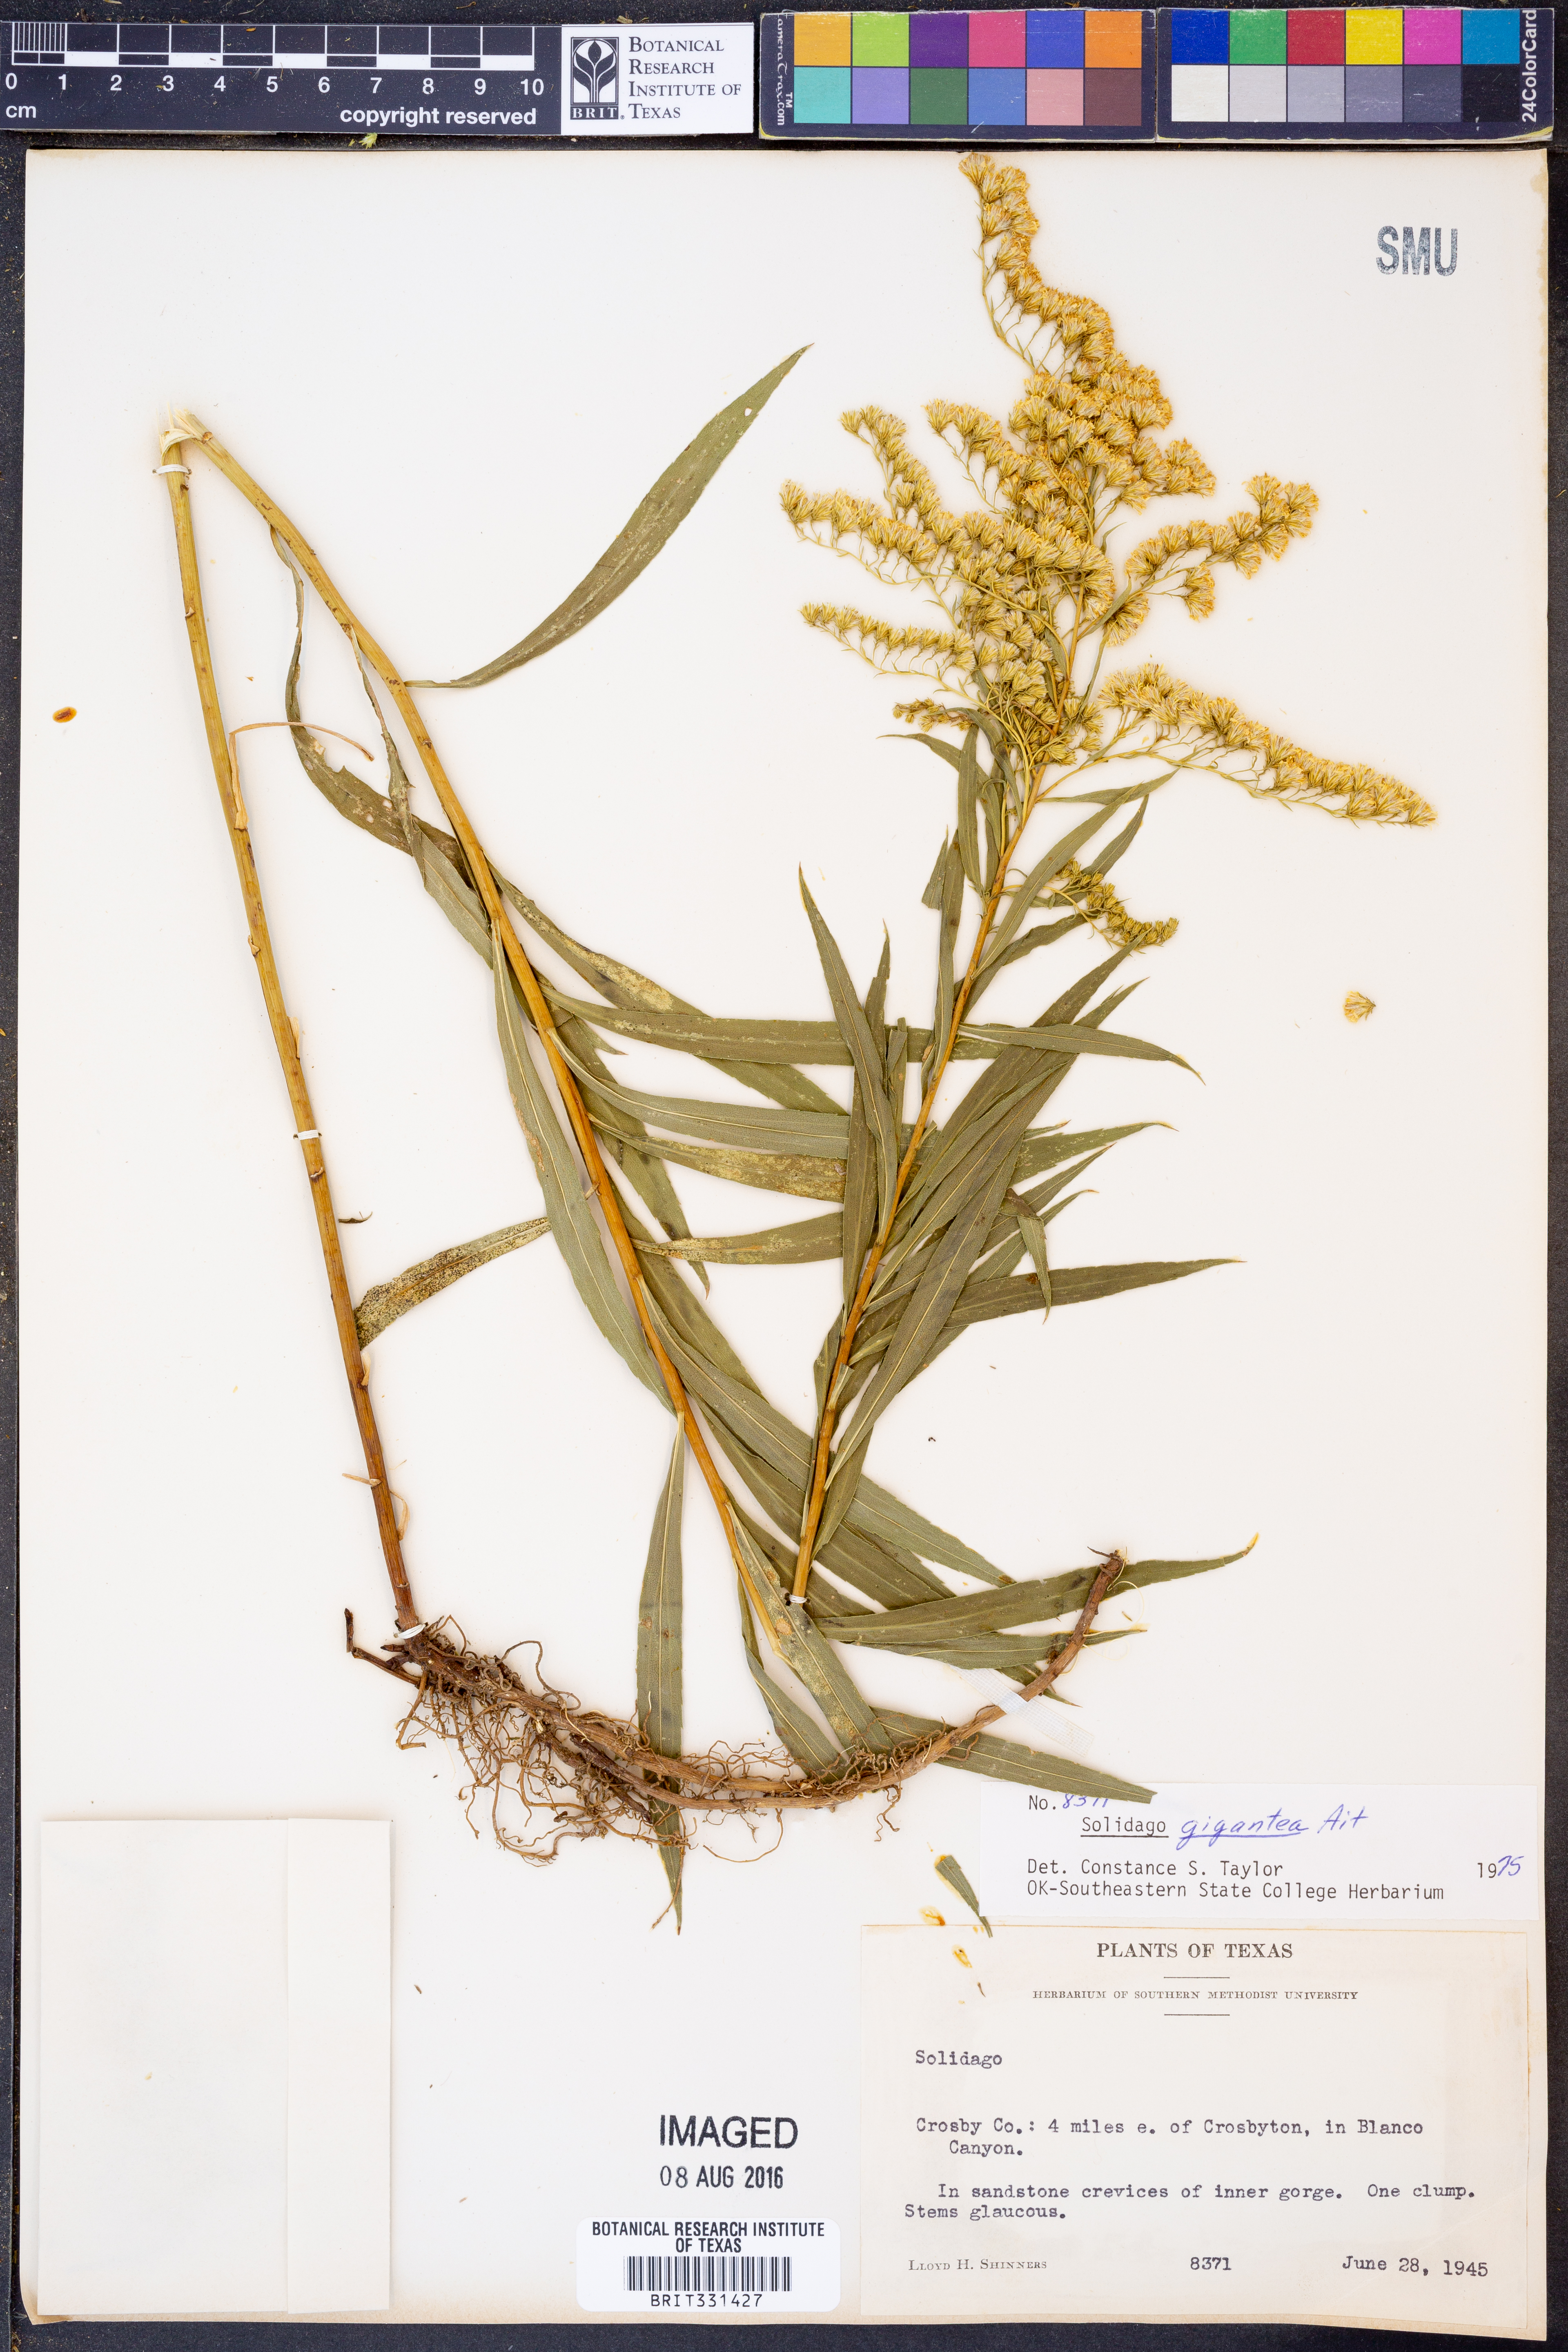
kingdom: Plantae
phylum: Tracheophyta
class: Magnoliopsida
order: Asterales
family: Asteraceae
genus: Solidago
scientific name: Solidago gigantea
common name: Giant goldenrod
